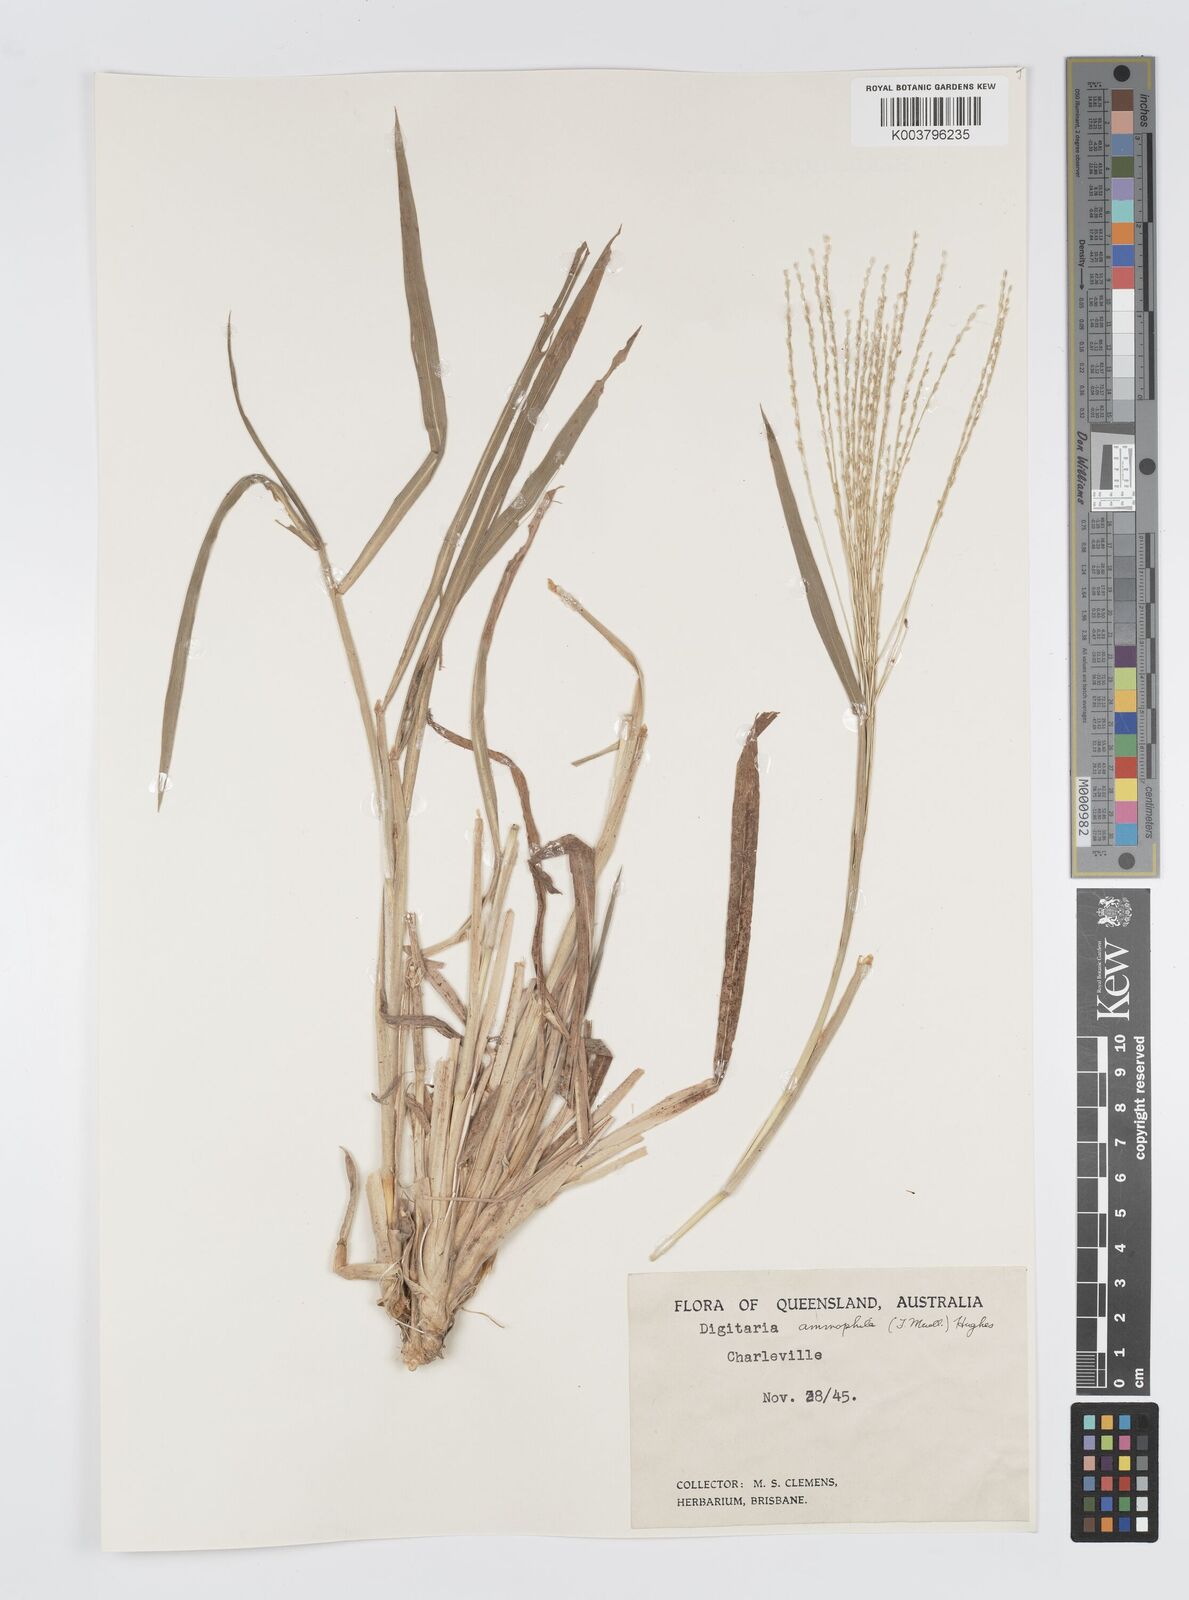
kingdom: Plantae
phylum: Tracheophyta
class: Liliopsida
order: Poales
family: Poaceae
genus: Digitaria
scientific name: Digitaria ammophila
